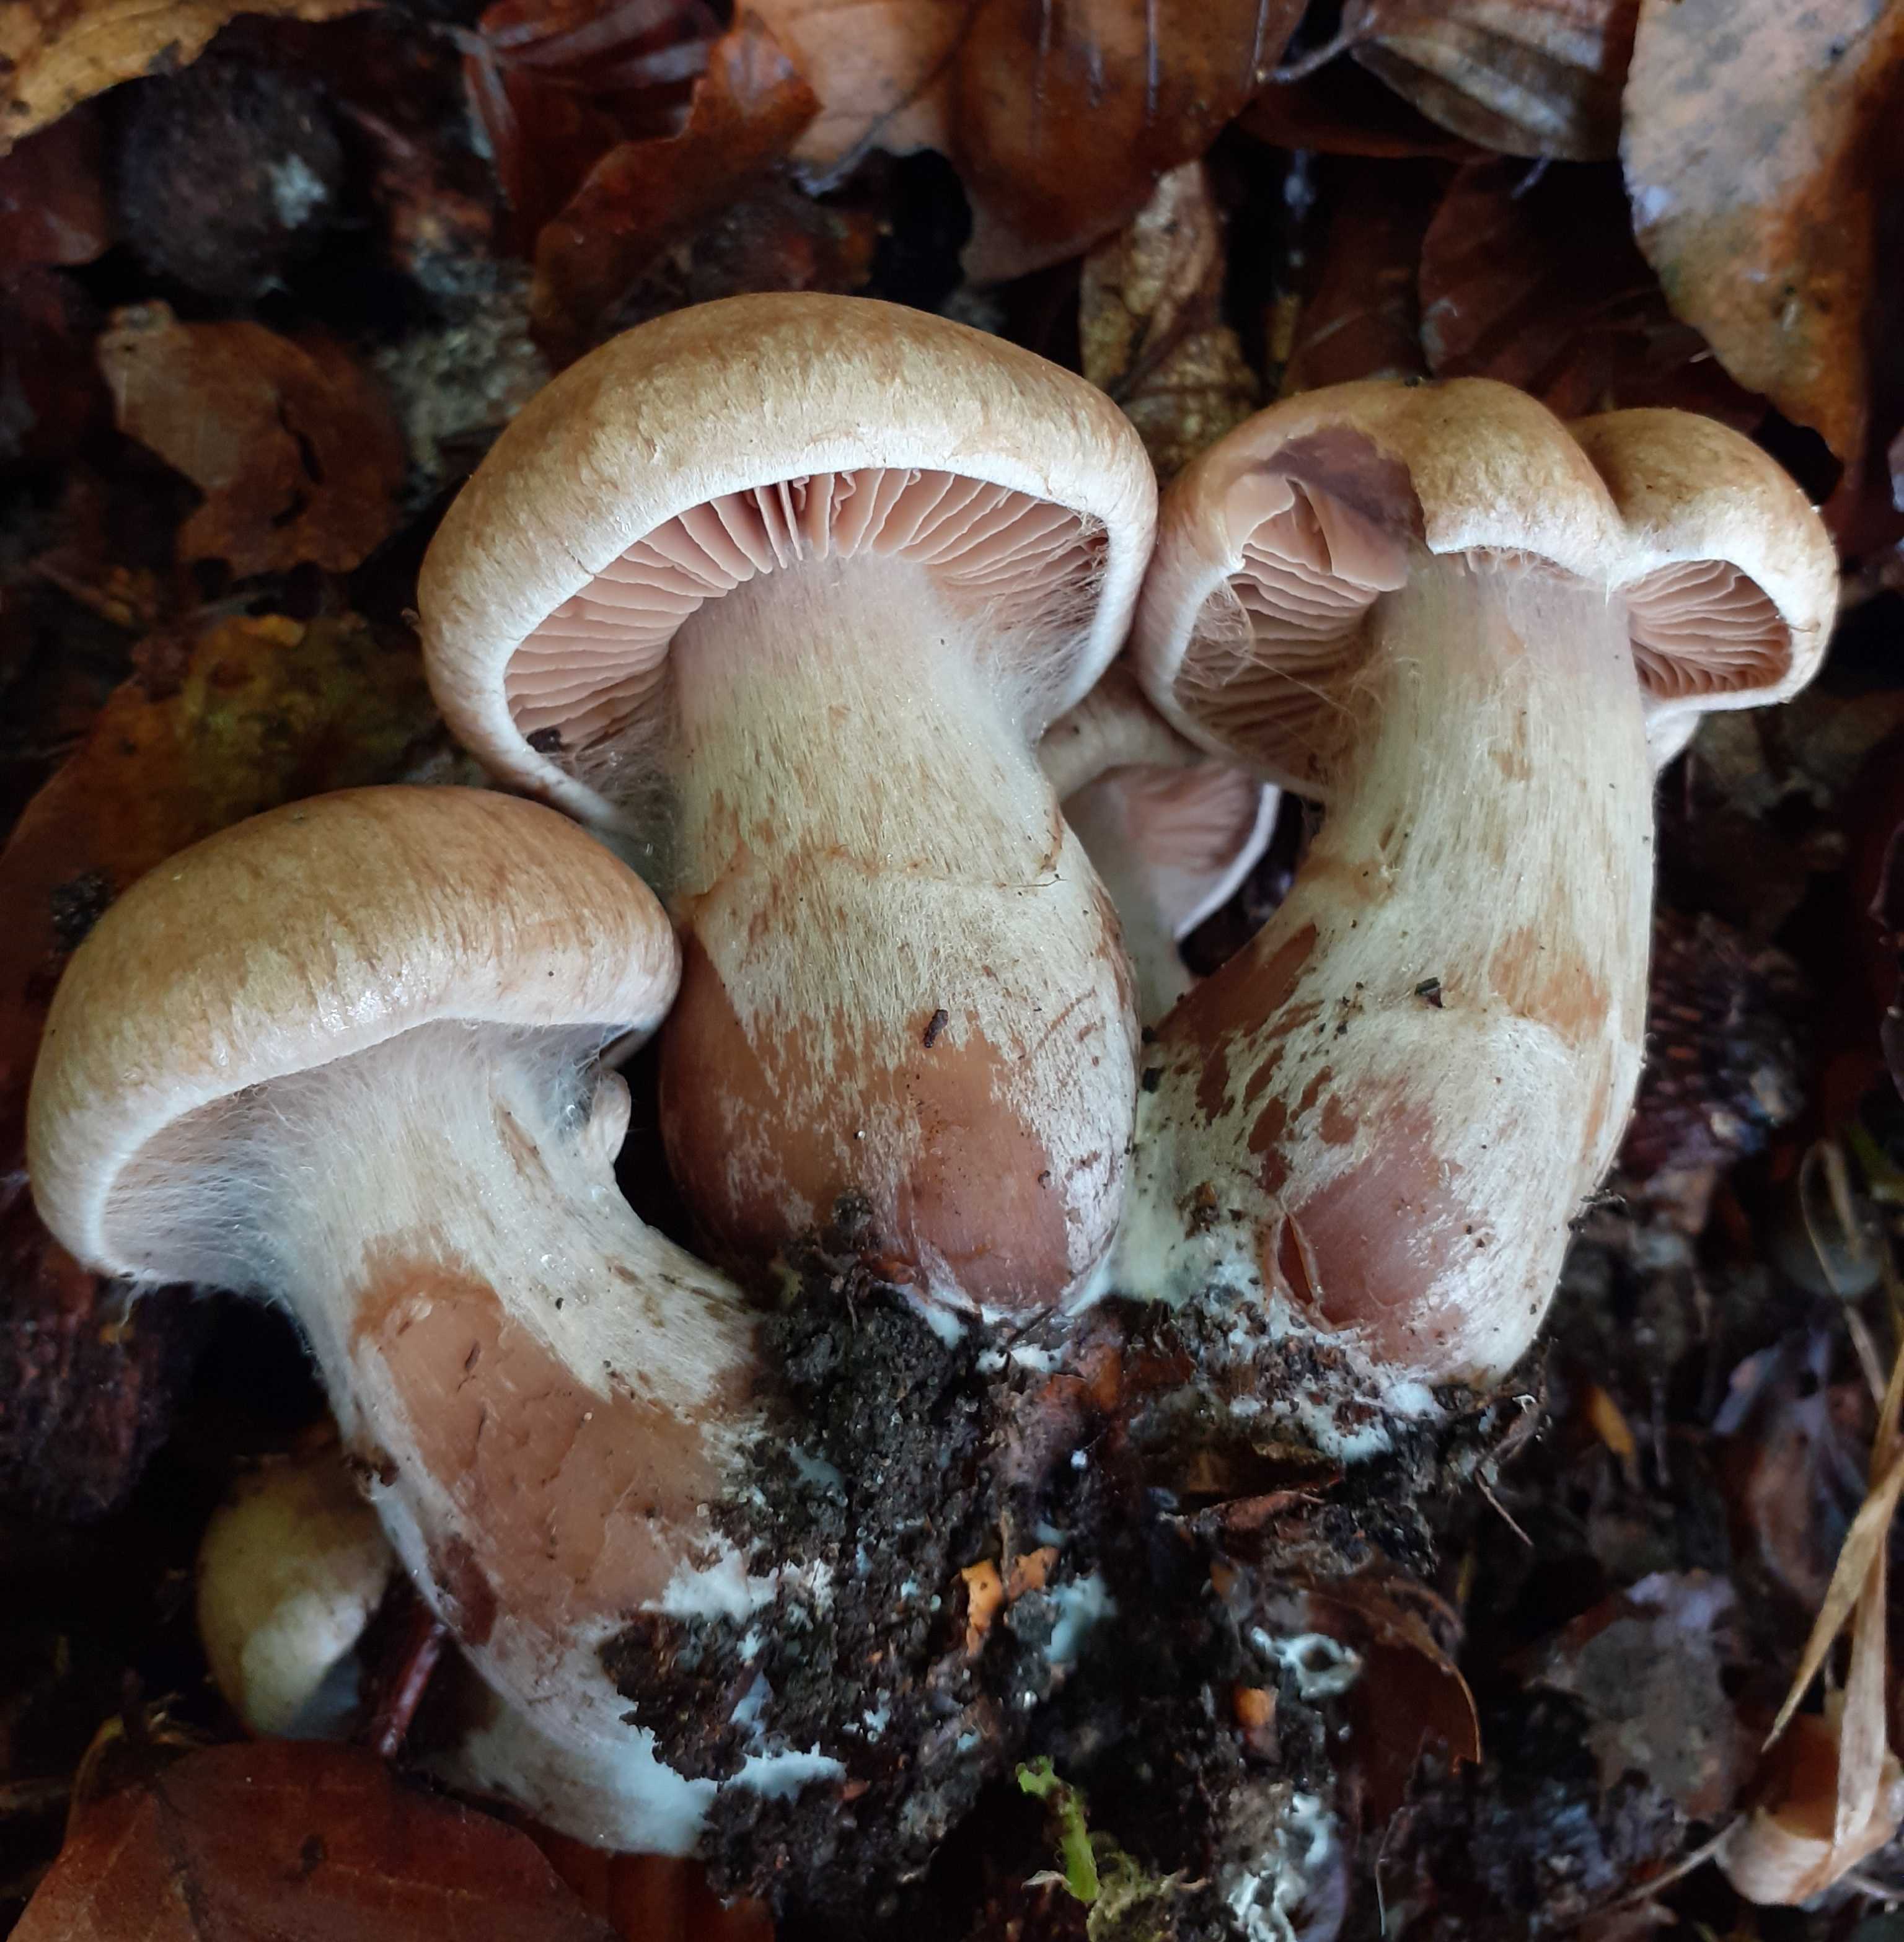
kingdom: Fungi
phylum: Basidiomycota
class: Agaricomycetes
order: Agaricales
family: Cortinariaceae
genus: Cortinarius
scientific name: Cortinarius
